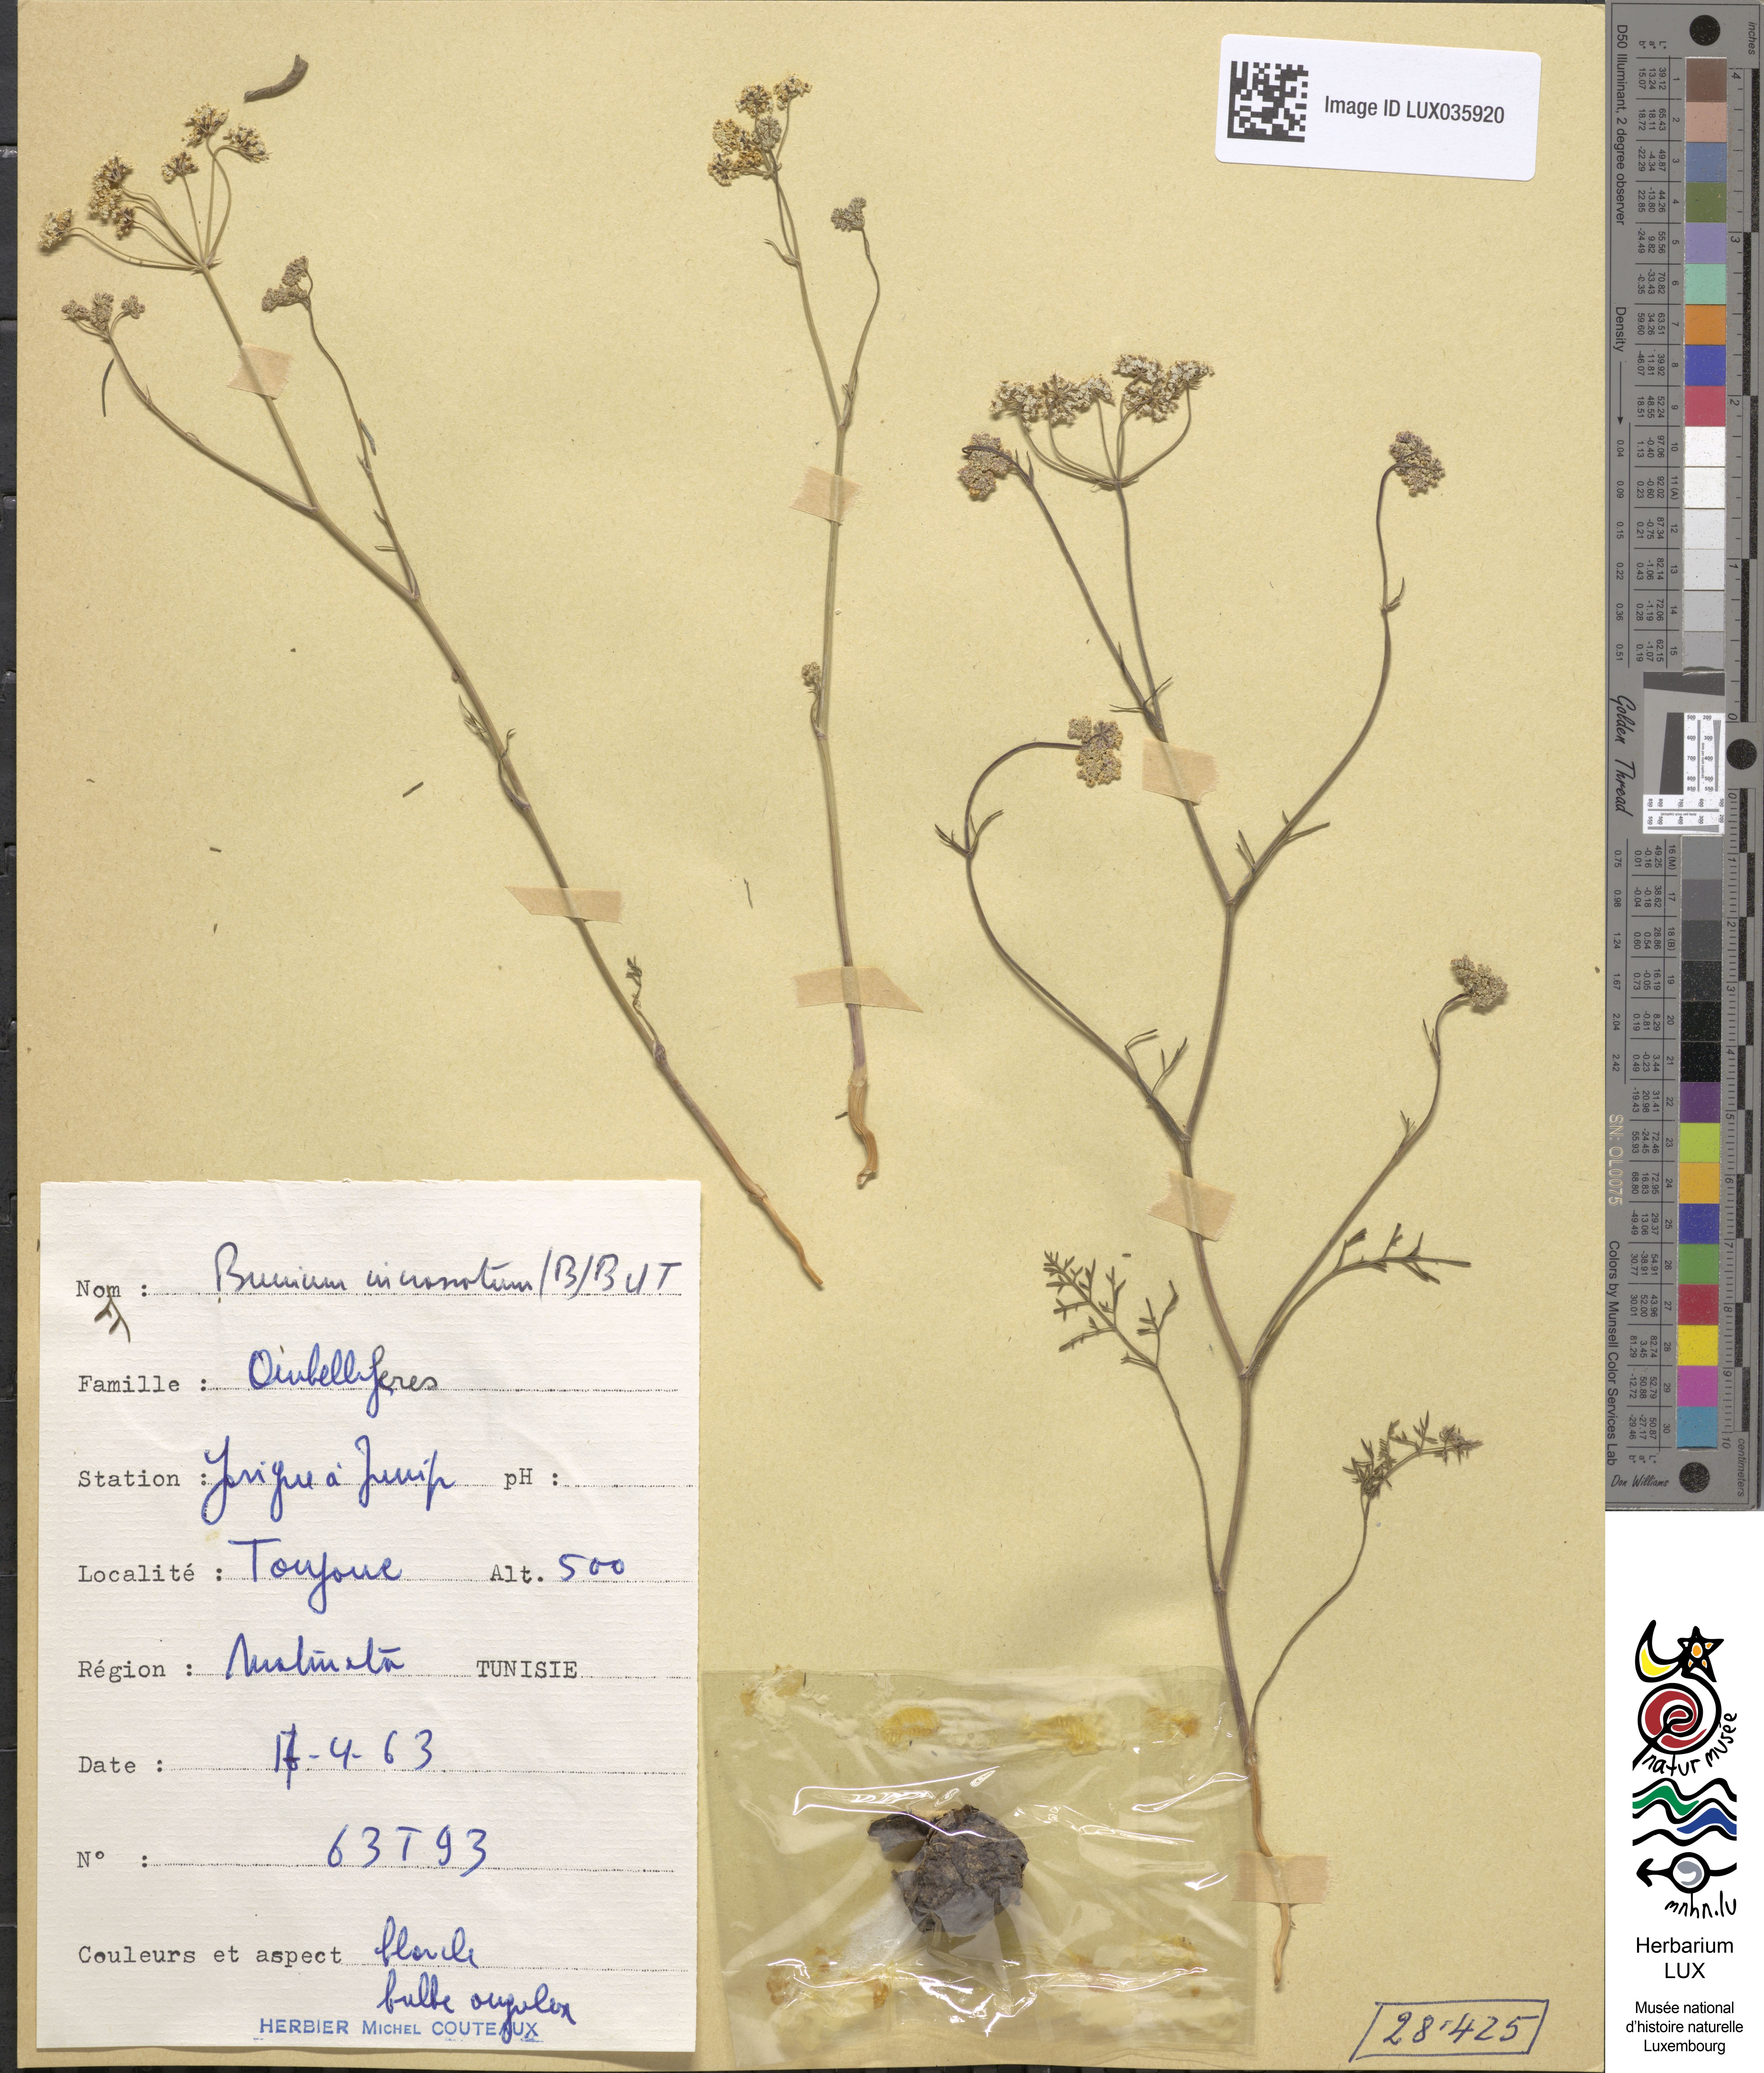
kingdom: Plantae
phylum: Tracheophyta
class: Magnoliopsida
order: Apiales
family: Apiaceae
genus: Bunium
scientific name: Bunium pachypodum
